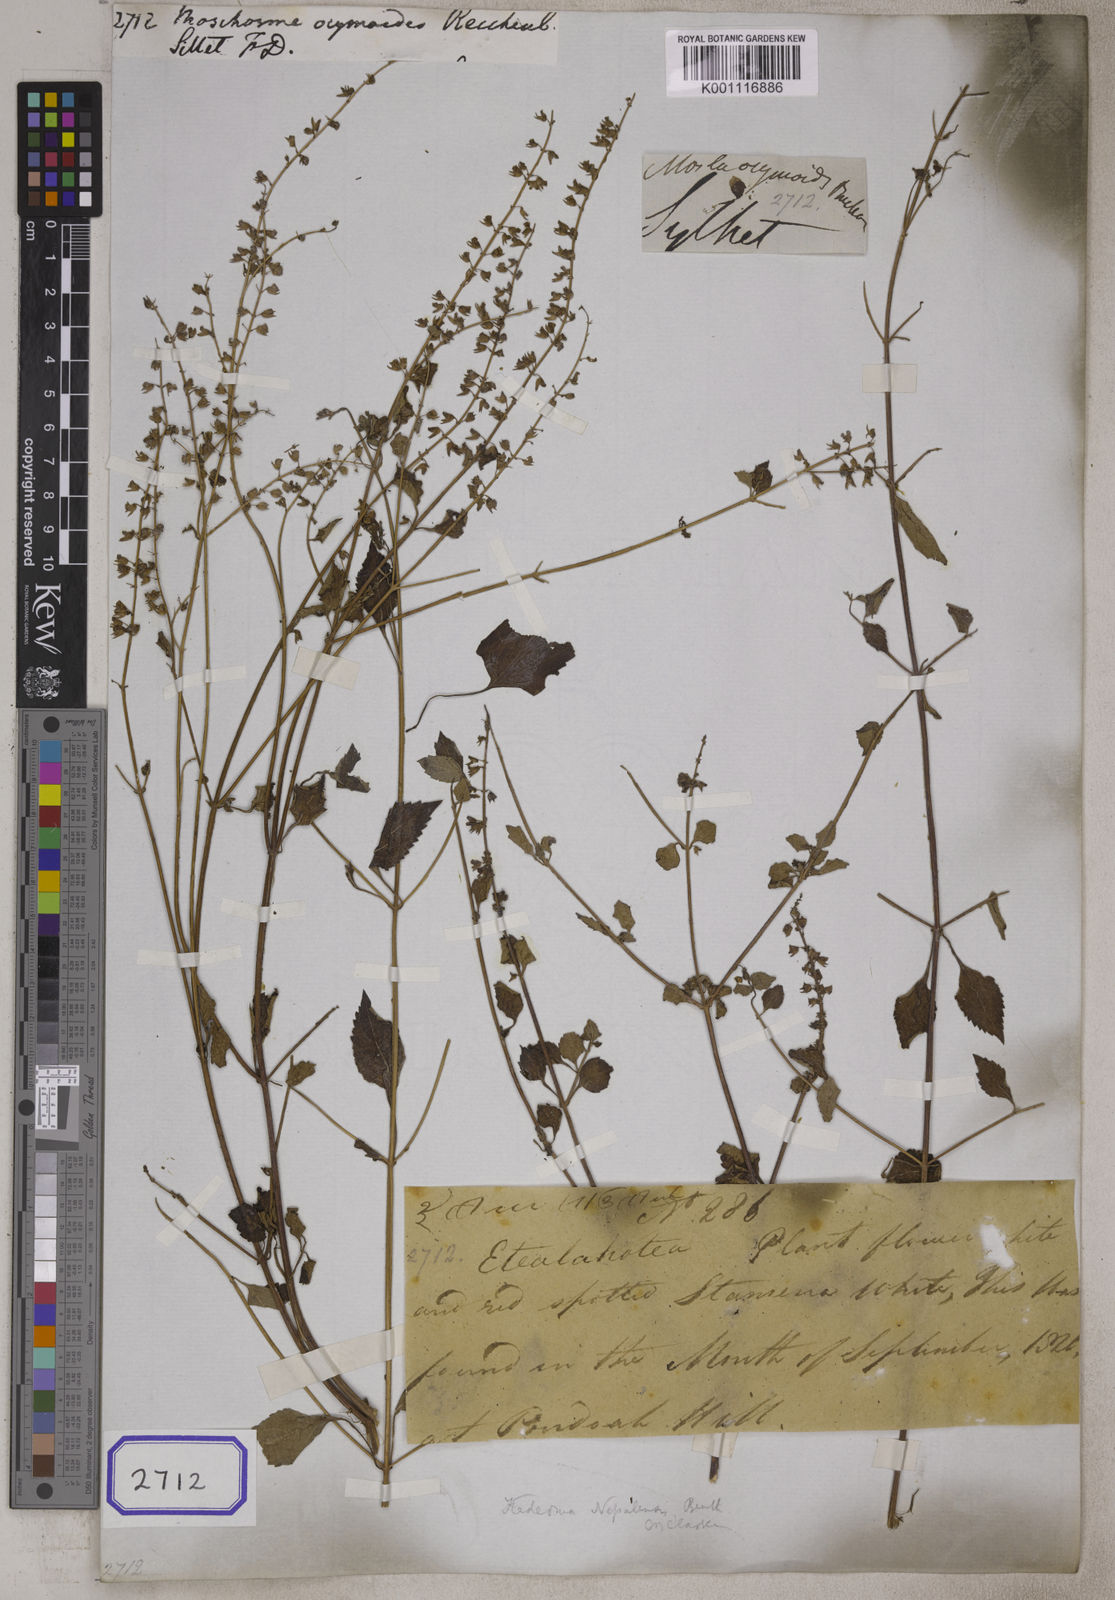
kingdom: Plantae
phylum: Tracheophyta
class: Magnoliopsida
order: Lamiales
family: Lamiaceae
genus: Basilicum
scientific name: Basilicum
